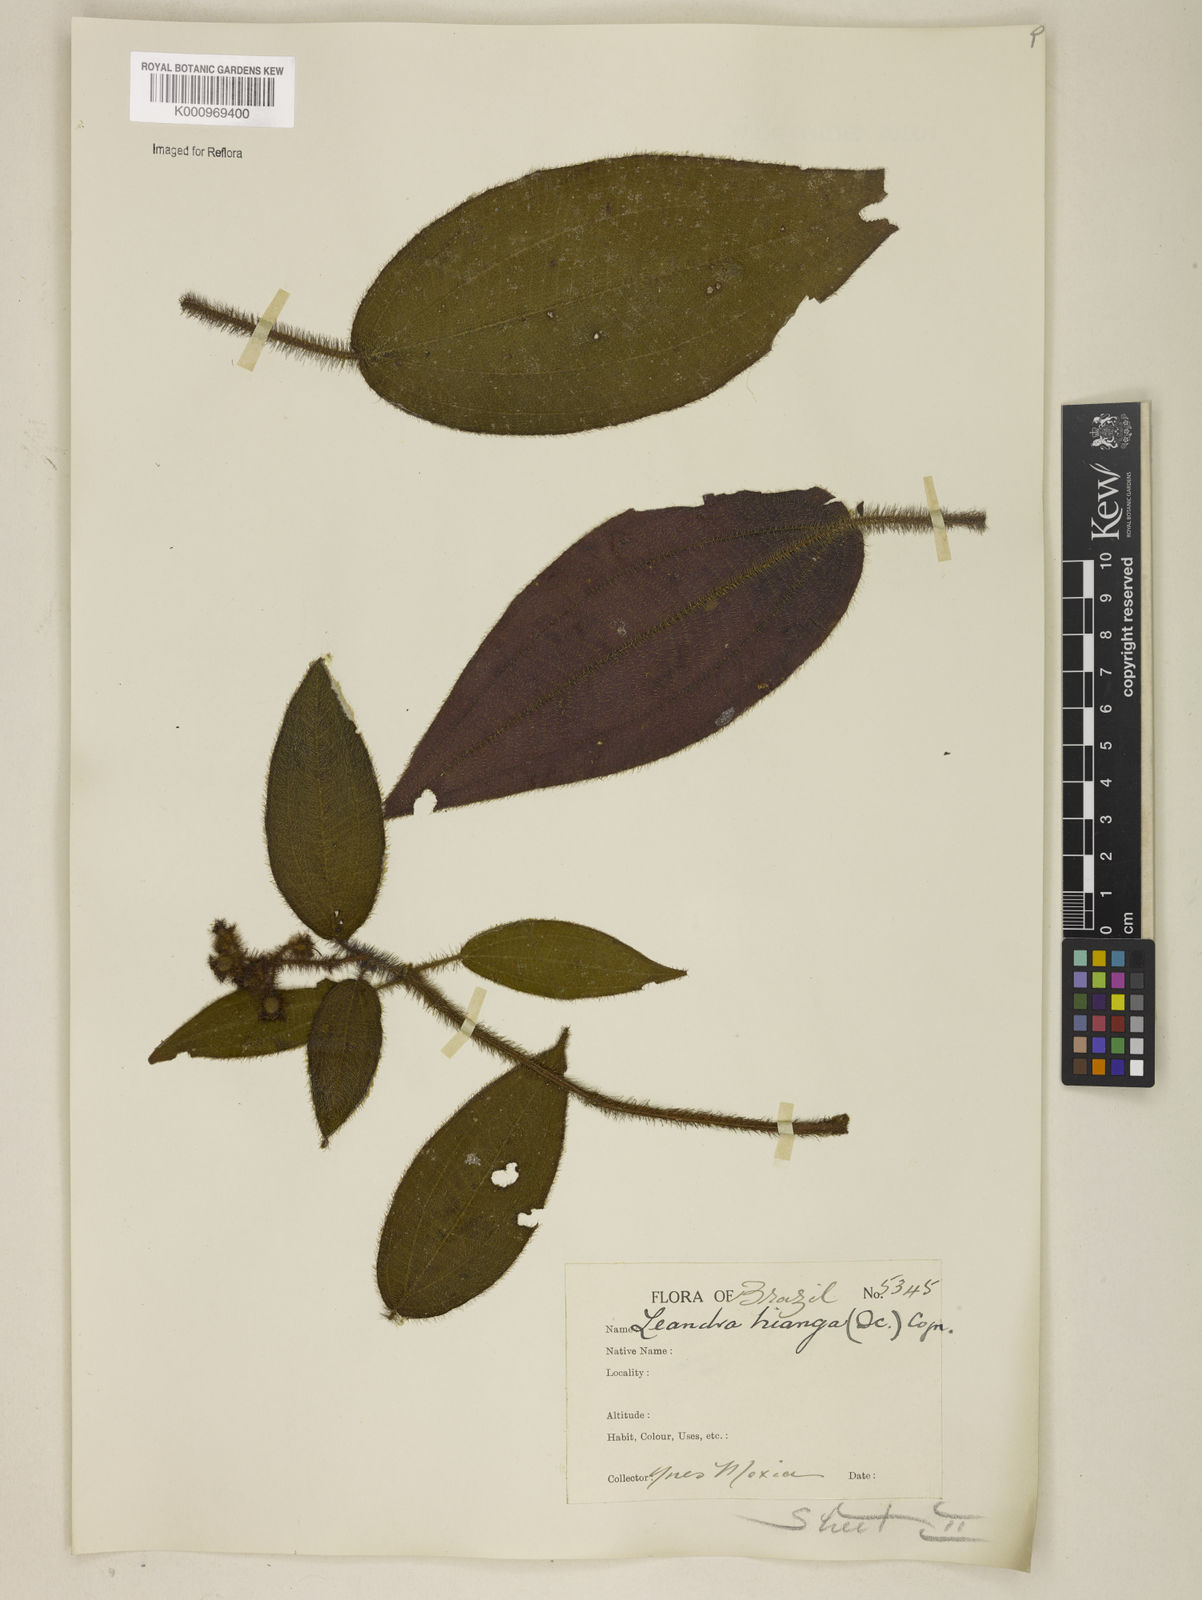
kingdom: Plantae
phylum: Tracheophyta
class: Magnoliopsida
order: Myrtales
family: Melastomataceae
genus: Miconia
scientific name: Miconia nianga
